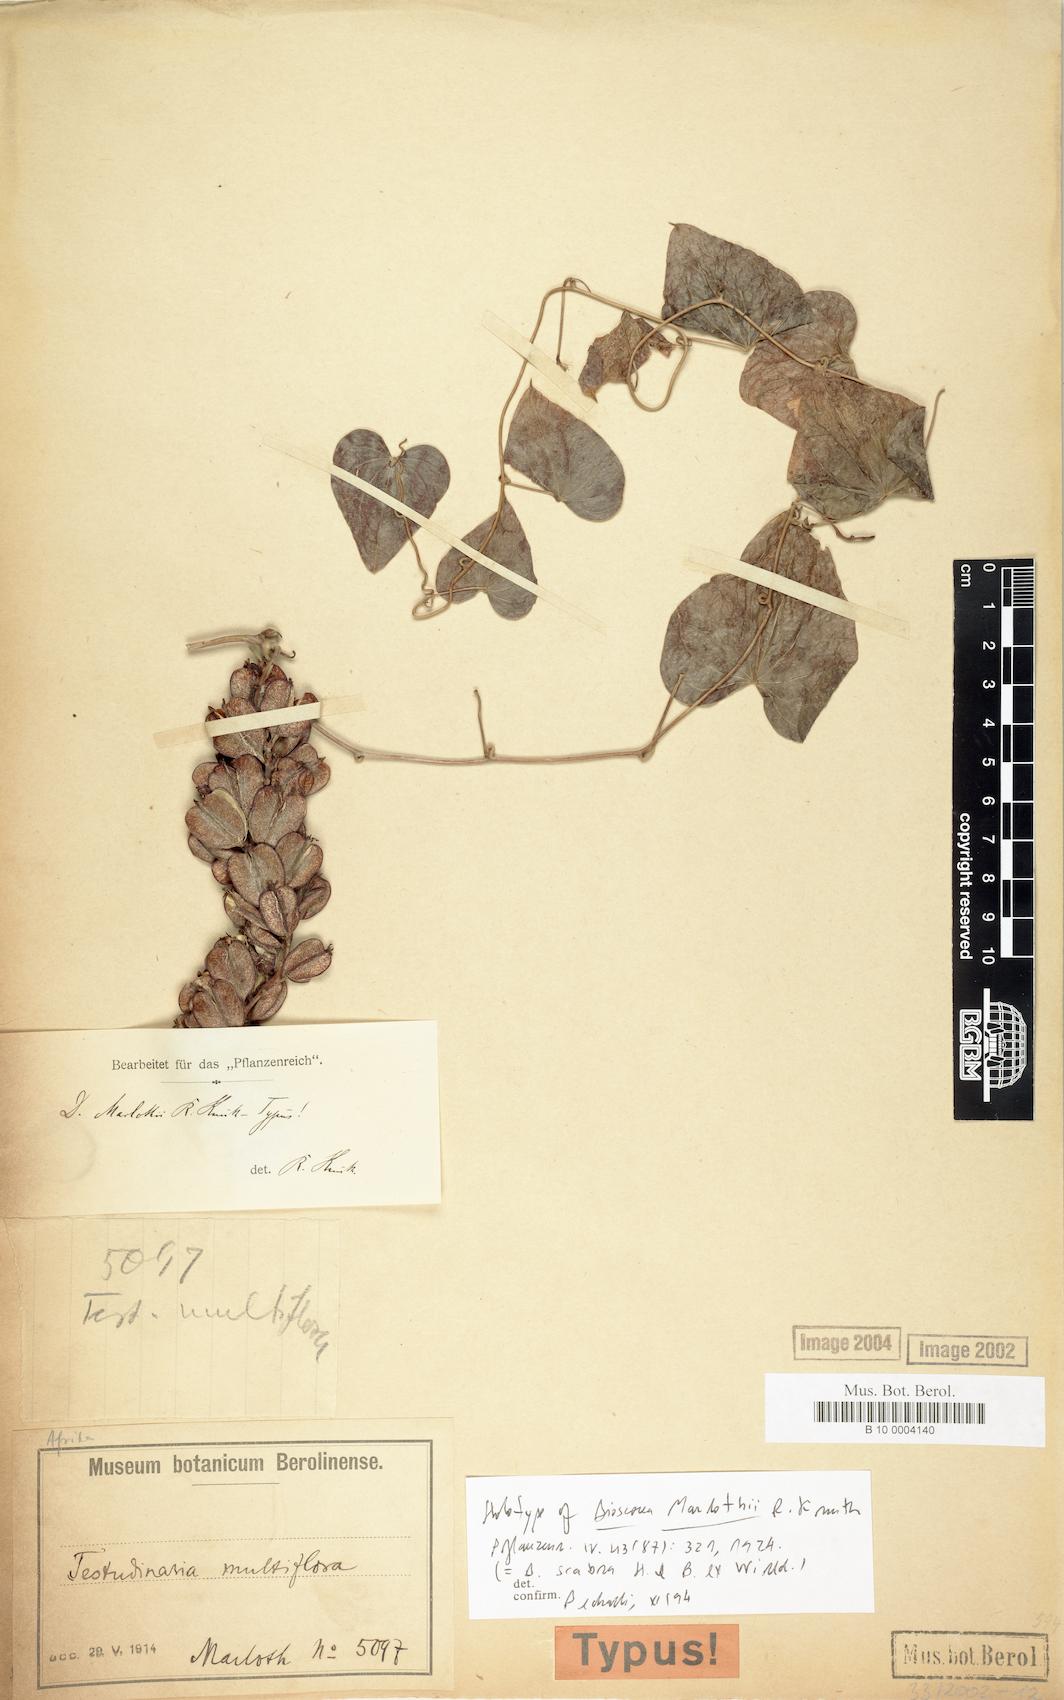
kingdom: Plantae
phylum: Tracheophyta
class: Liliopsida
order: Dioscoreales
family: Dioscoreaceae
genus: Dioscorea
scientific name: Dioscorea sylvatica
